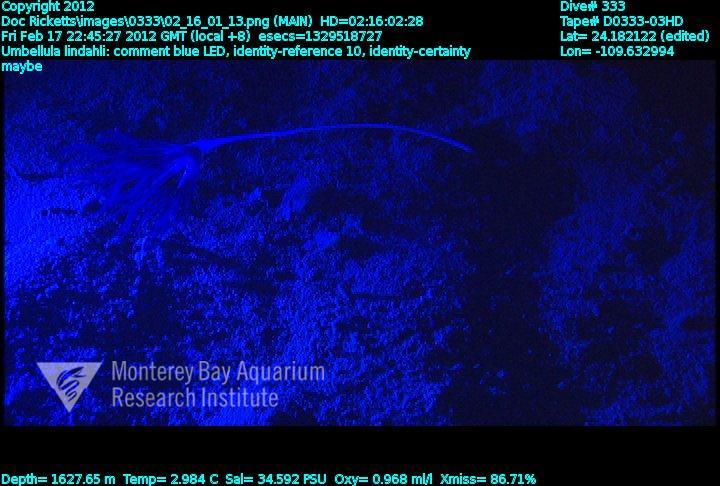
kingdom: Animalia
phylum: Cnidaria
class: Anthozoa
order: Scleralcyonacea
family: Umbellulidae
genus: Umbellula
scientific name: Umbellula lindahli
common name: Lindahl's droopy sea pen
